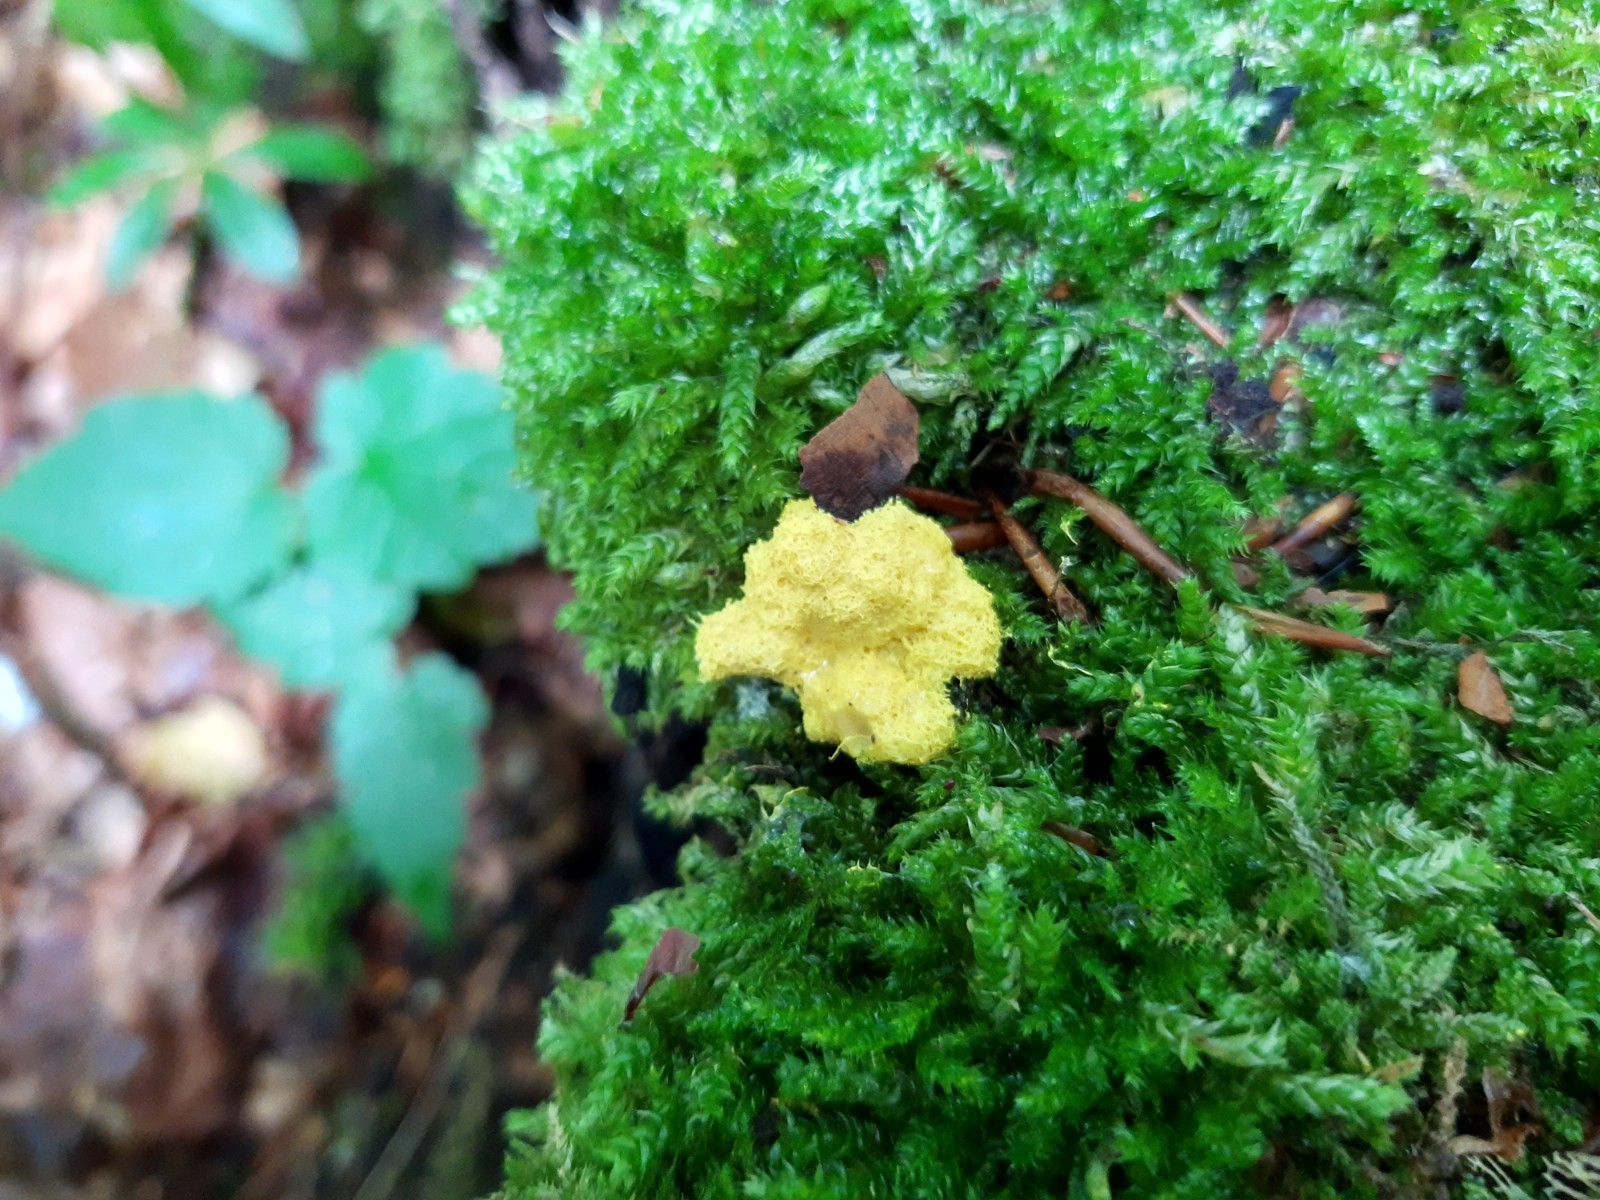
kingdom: Protozoa
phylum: Mycetozoa
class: Myxomycetes
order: Physarales
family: Physaraceae
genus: Fuligo
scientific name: Fuligo septica
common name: gul troldsmør
